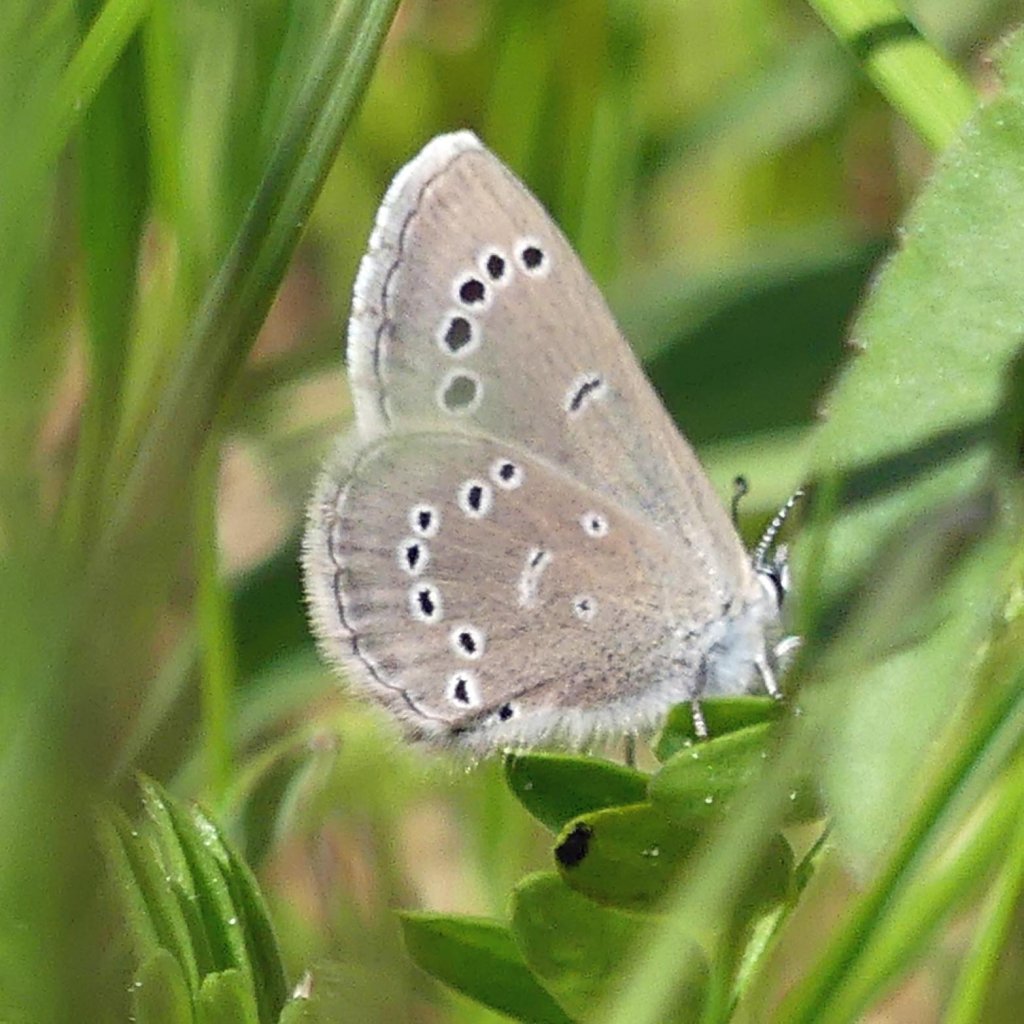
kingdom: Animalia
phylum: Arthropoda
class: Insecta
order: Lepidoptera
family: Lycaenidae
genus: Glaucopsyche
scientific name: Glaucopsyche lygdamus
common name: Silvery Blue
